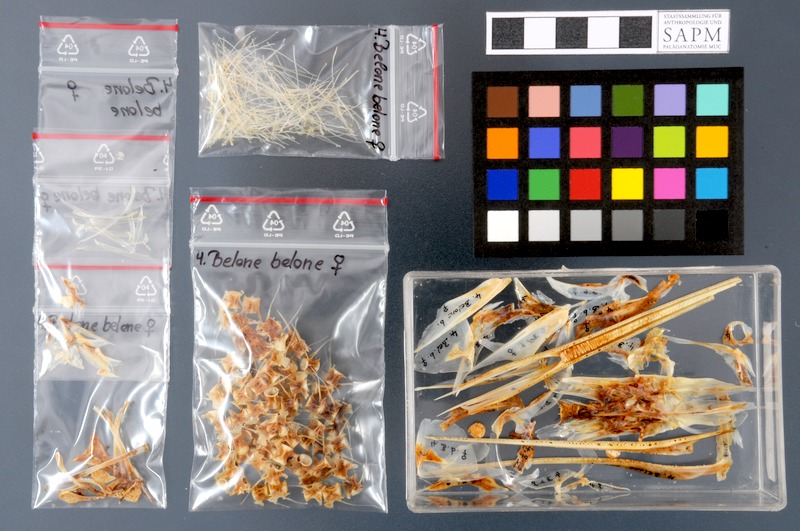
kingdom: Animalia
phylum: Chordata
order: Beloniformes
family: Belonidae
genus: Belone
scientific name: Belone belone
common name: Garfish
